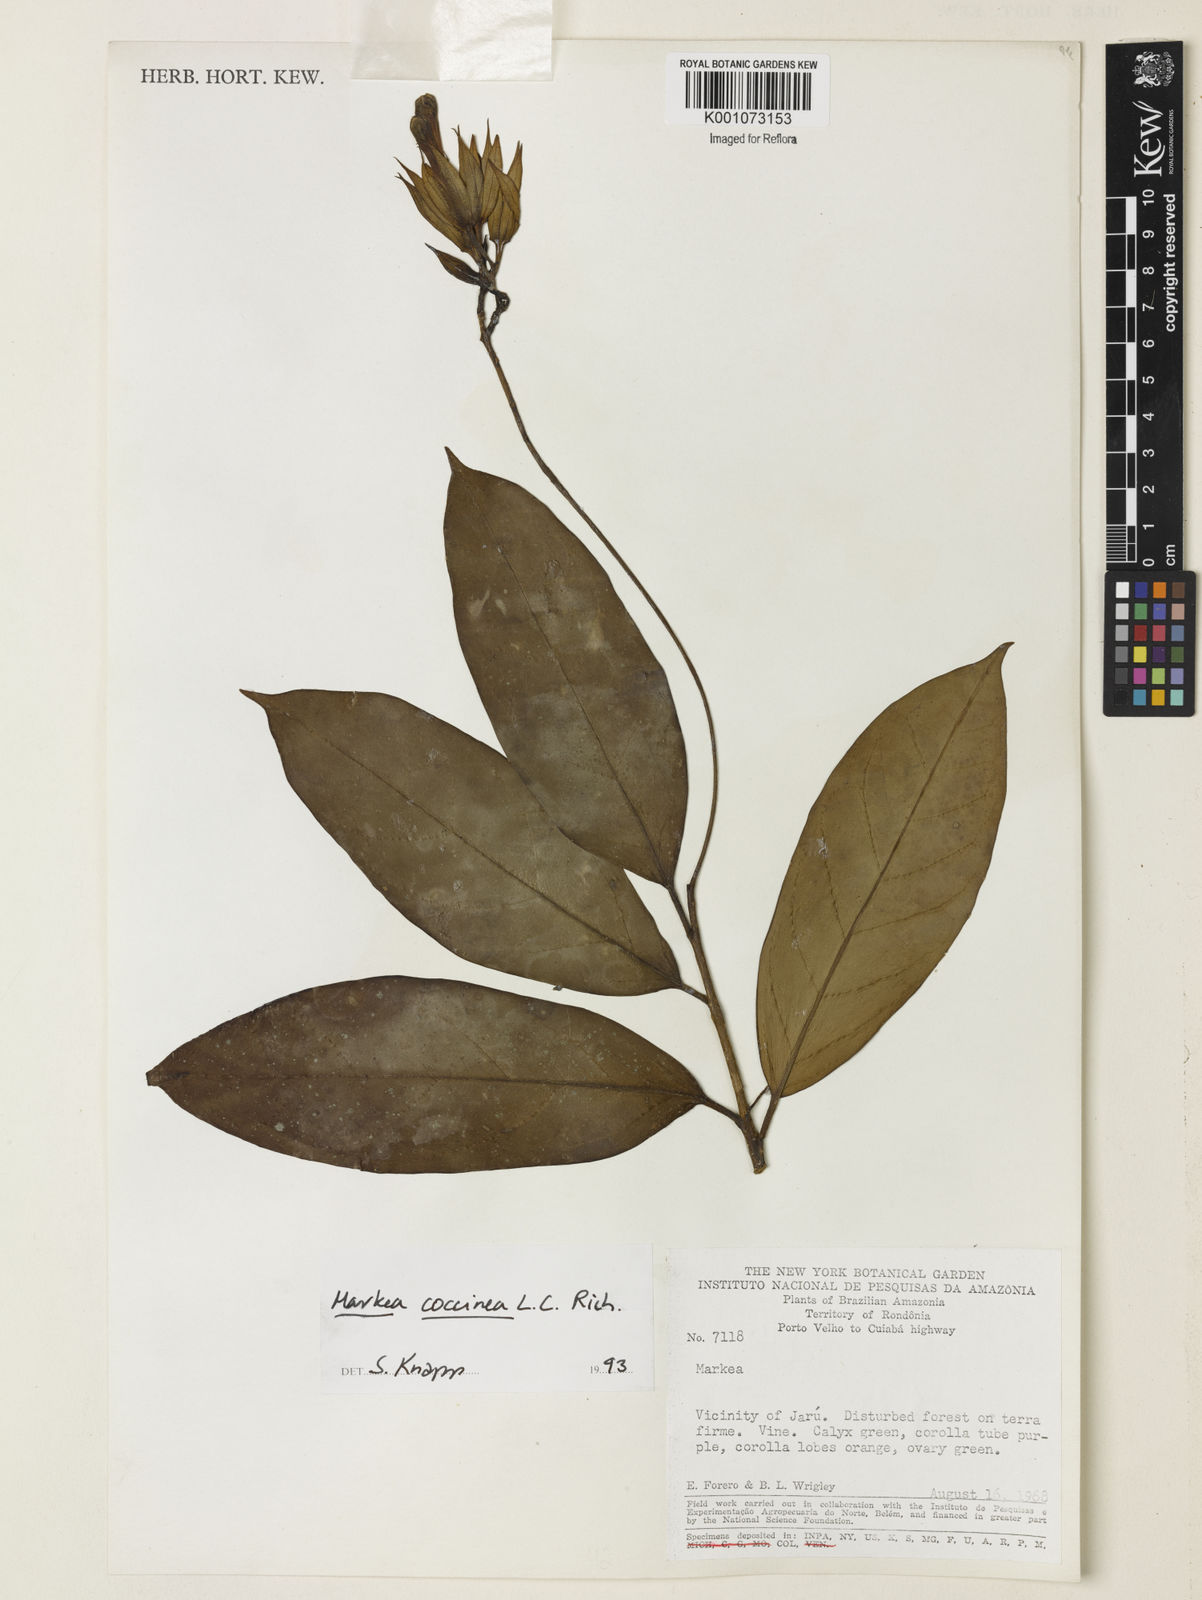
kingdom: Plantae
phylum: Tracheophyta
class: Magnoliopsida
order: Solanales
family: Solanaceae
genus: Markea
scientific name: Markea coccinea
